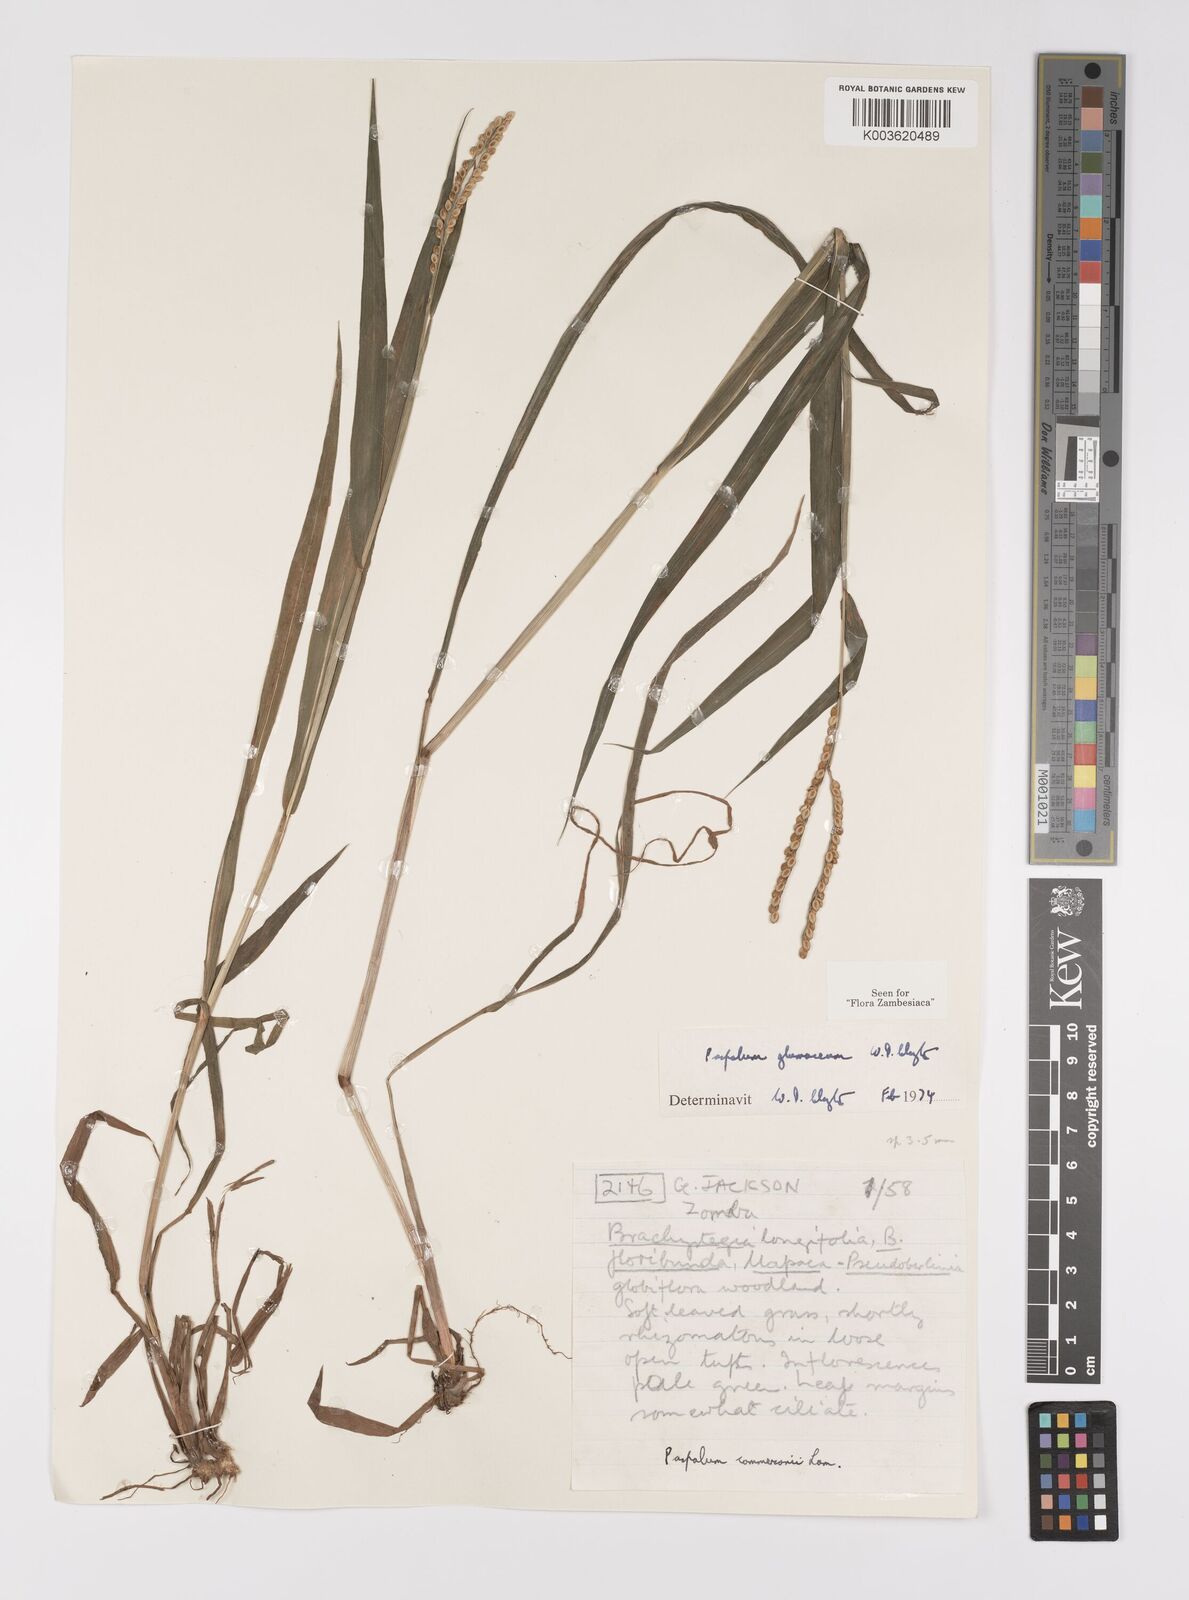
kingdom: Plantae
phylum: Tracheophyta
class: Liliopsida
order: Poales
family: Poaceae
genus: Paspalum
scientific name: Paspalum glumaceum
